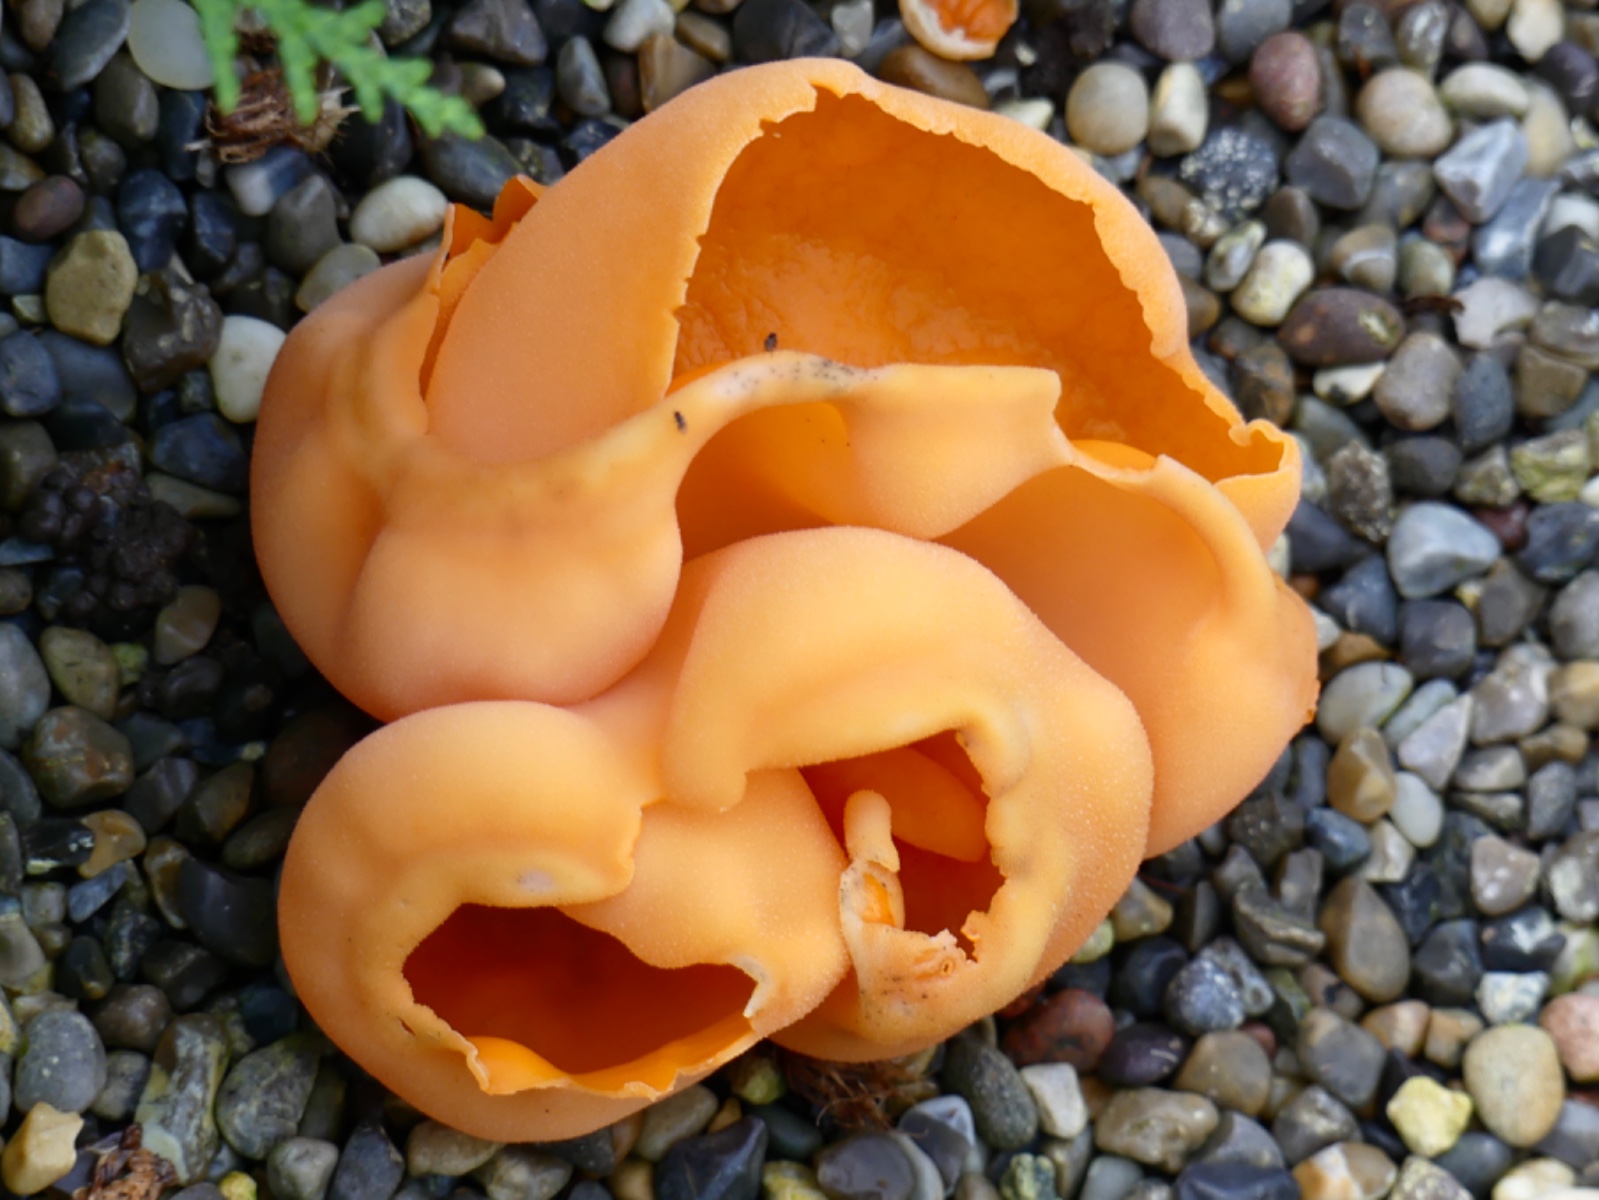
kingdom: Fungi
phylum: Ascomycota
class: Pezizomycetes
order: Pezizales
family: Otideaceae
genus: Otidea
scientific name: Otidea onotica
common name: æsel-ørebæger
